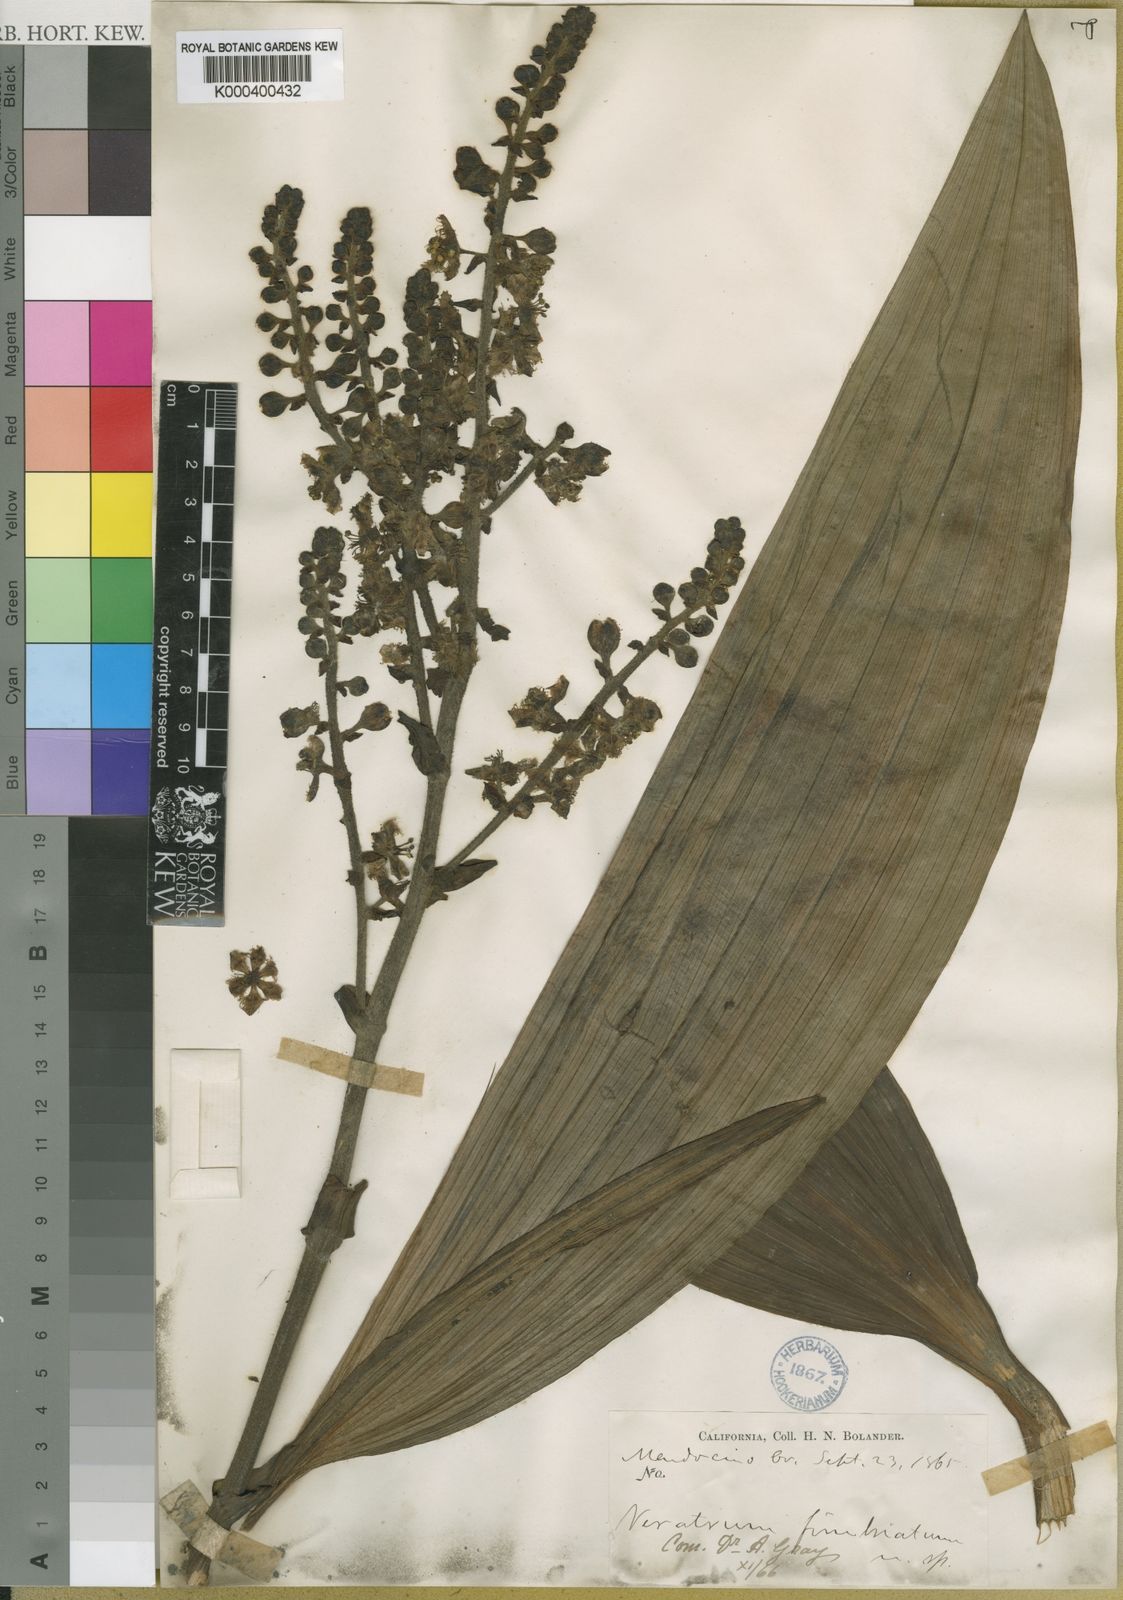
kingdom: Plantae
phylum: Tracheophyta
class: Liliopsida
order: Liliales
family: Melanthiaceae
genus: Veratrum
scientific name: Veratrum fimbriatum
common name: Fringe false hellobore
